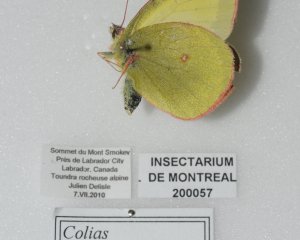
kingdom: Animalia
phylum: Arthropoda
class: Insecta
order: Lepidoptera
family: Pieridae
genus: Colias
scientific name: Colias pelidne
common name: Pelidne Sulphur
